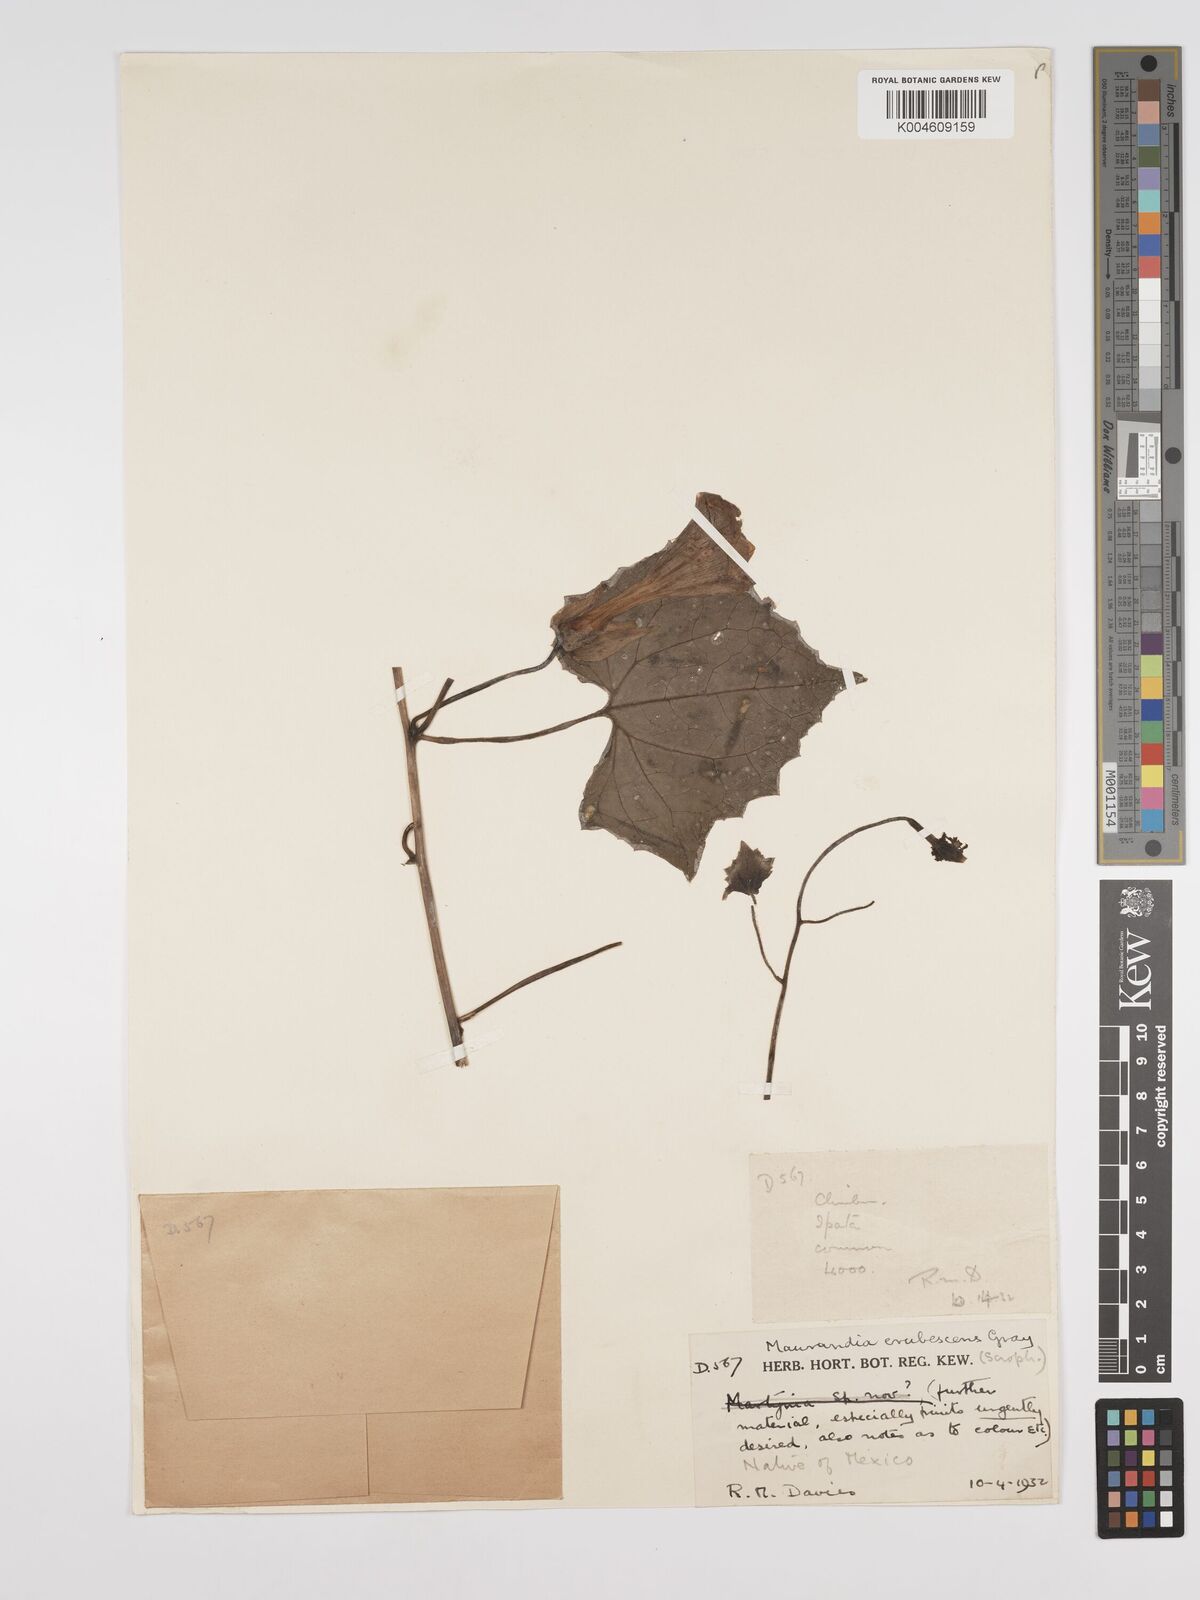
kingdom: Plantae
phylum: Tracheophyta
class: Magnoliopsida
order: Lamiales
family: Plantaginaceae
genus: Lophospermum
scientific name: Lophospermum erubescens
